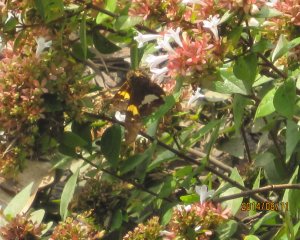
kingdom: Animalia
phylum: Arthropoda
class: Insecta
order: Lepidoptera
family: Hesperiidae
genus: Epargyreus
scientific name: Epargyreus clarus
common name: Silver-spotted Skipper
